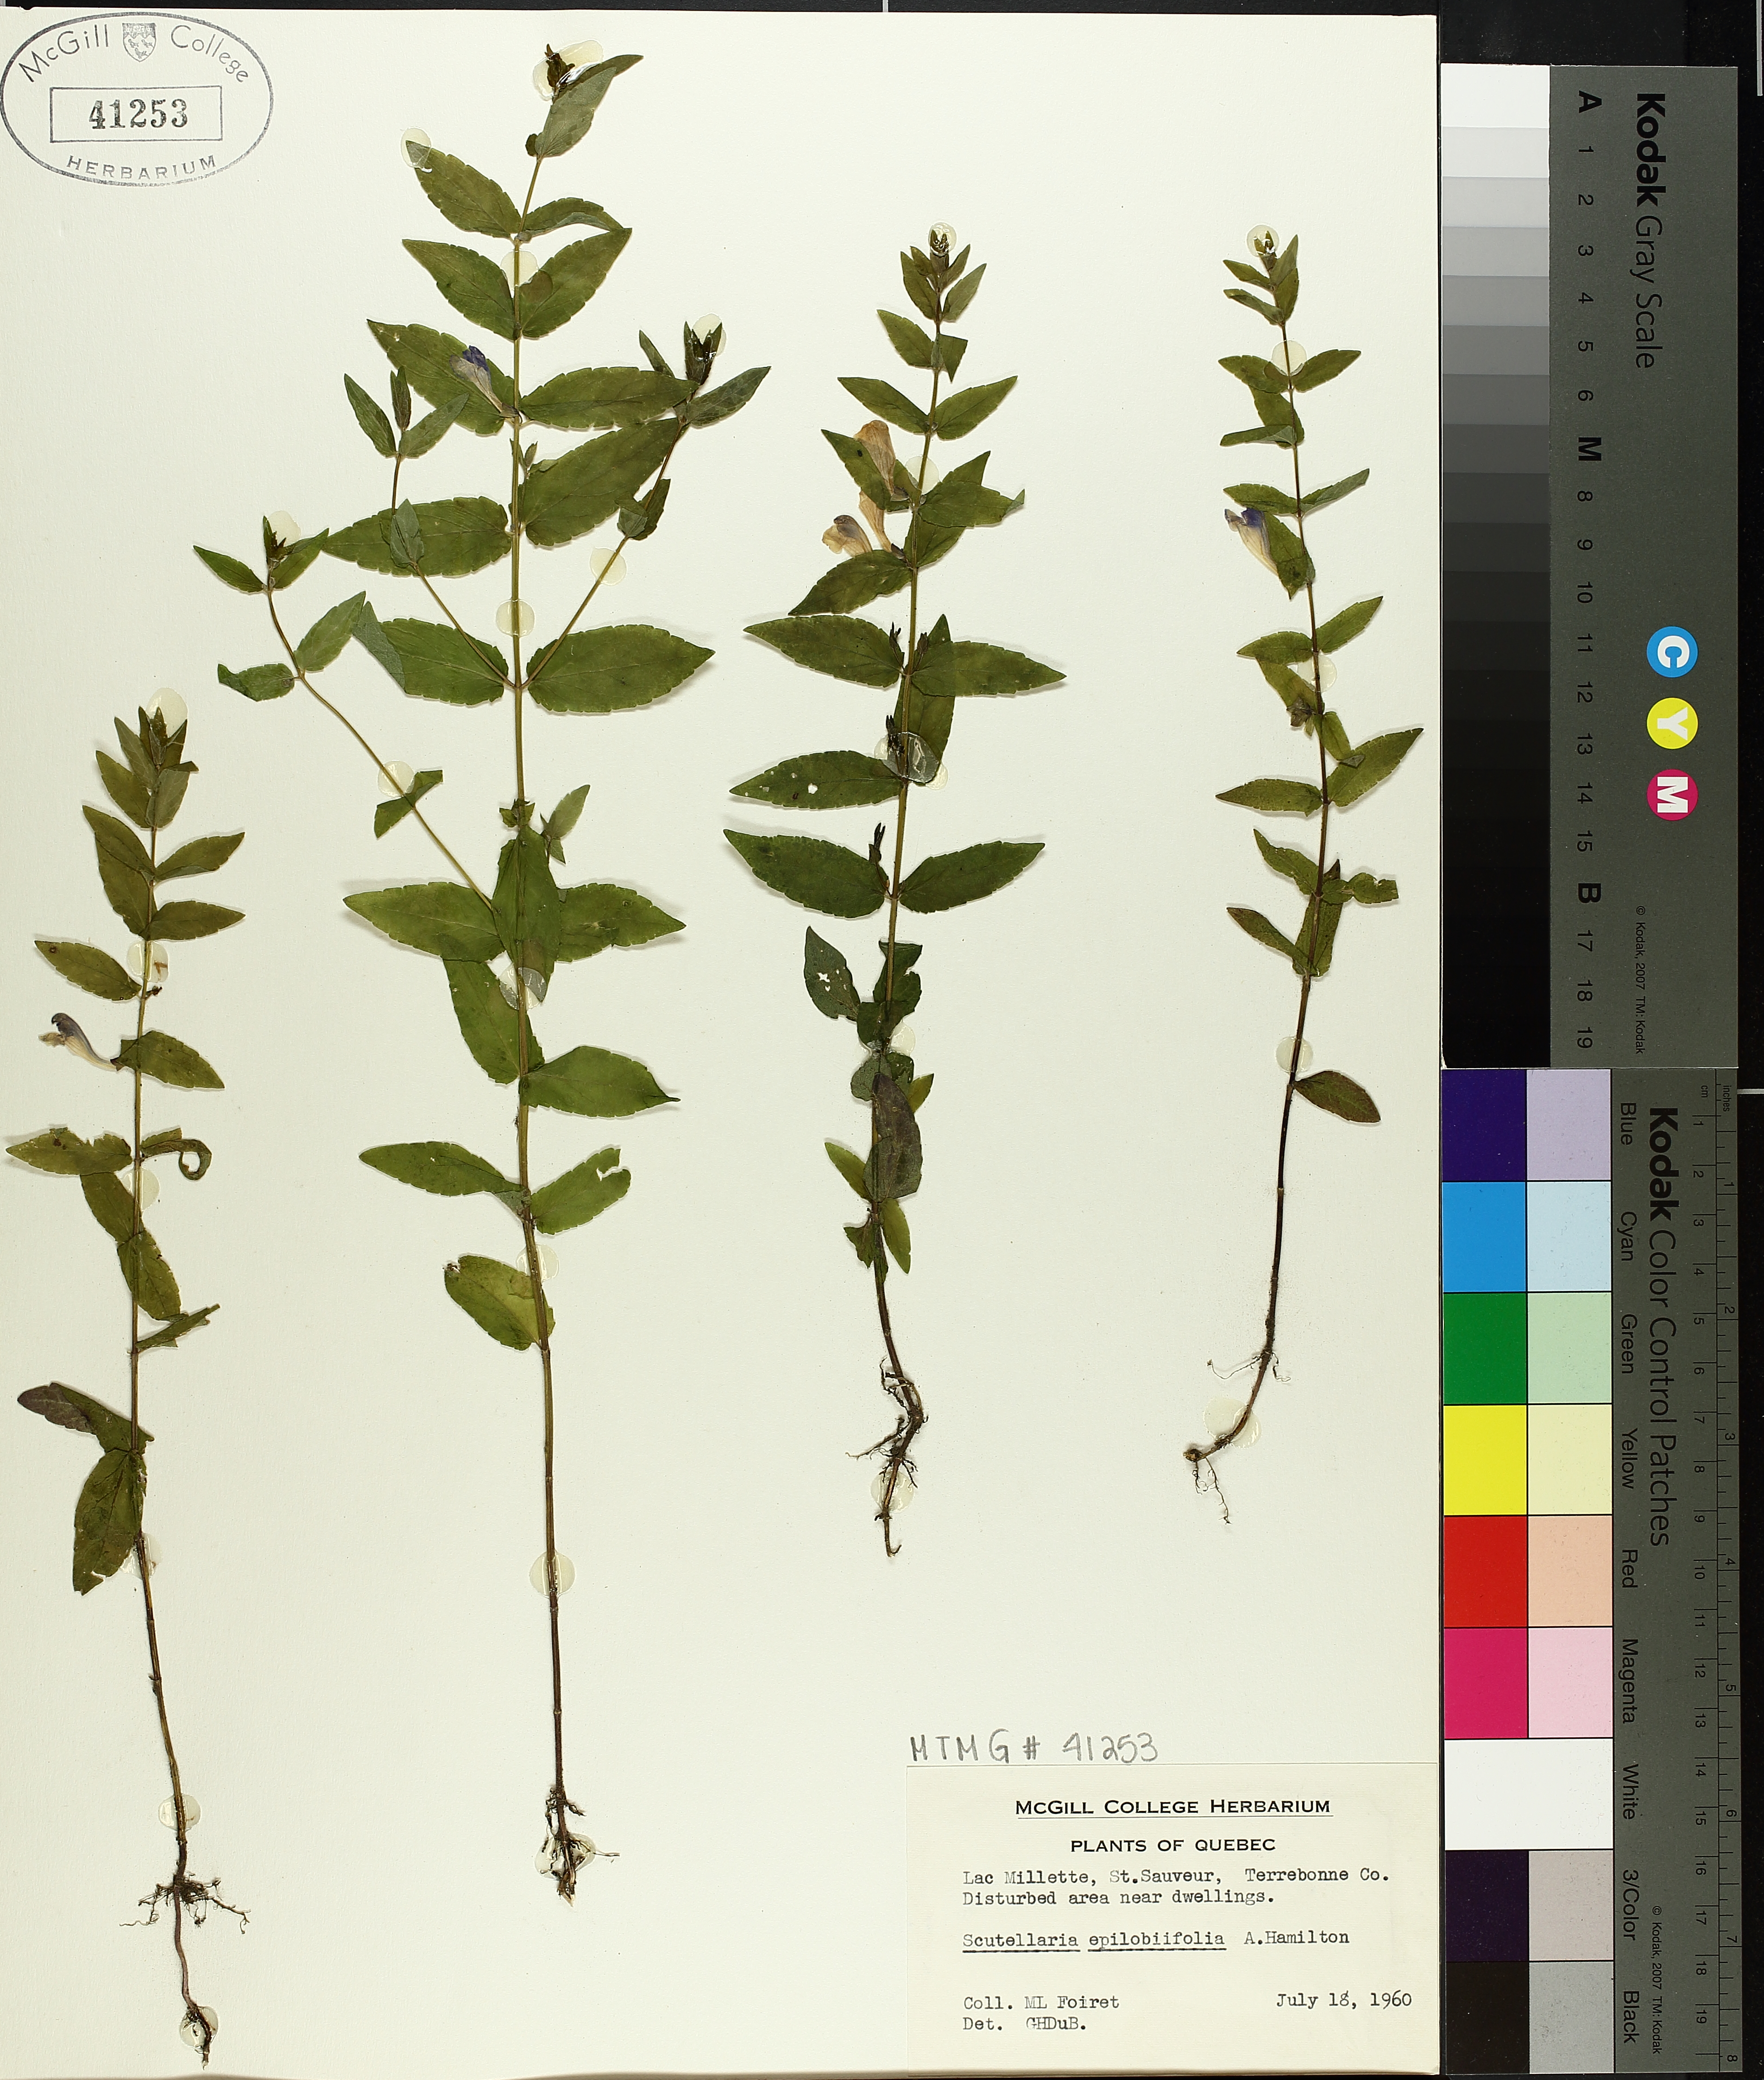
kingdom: Plantae
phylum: Tracheophyta
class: Magnoliopsida
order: Lamiales
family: Lamiaceae
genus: Scutellaria
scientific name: Scutellaria galericulata
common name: Skullcap
